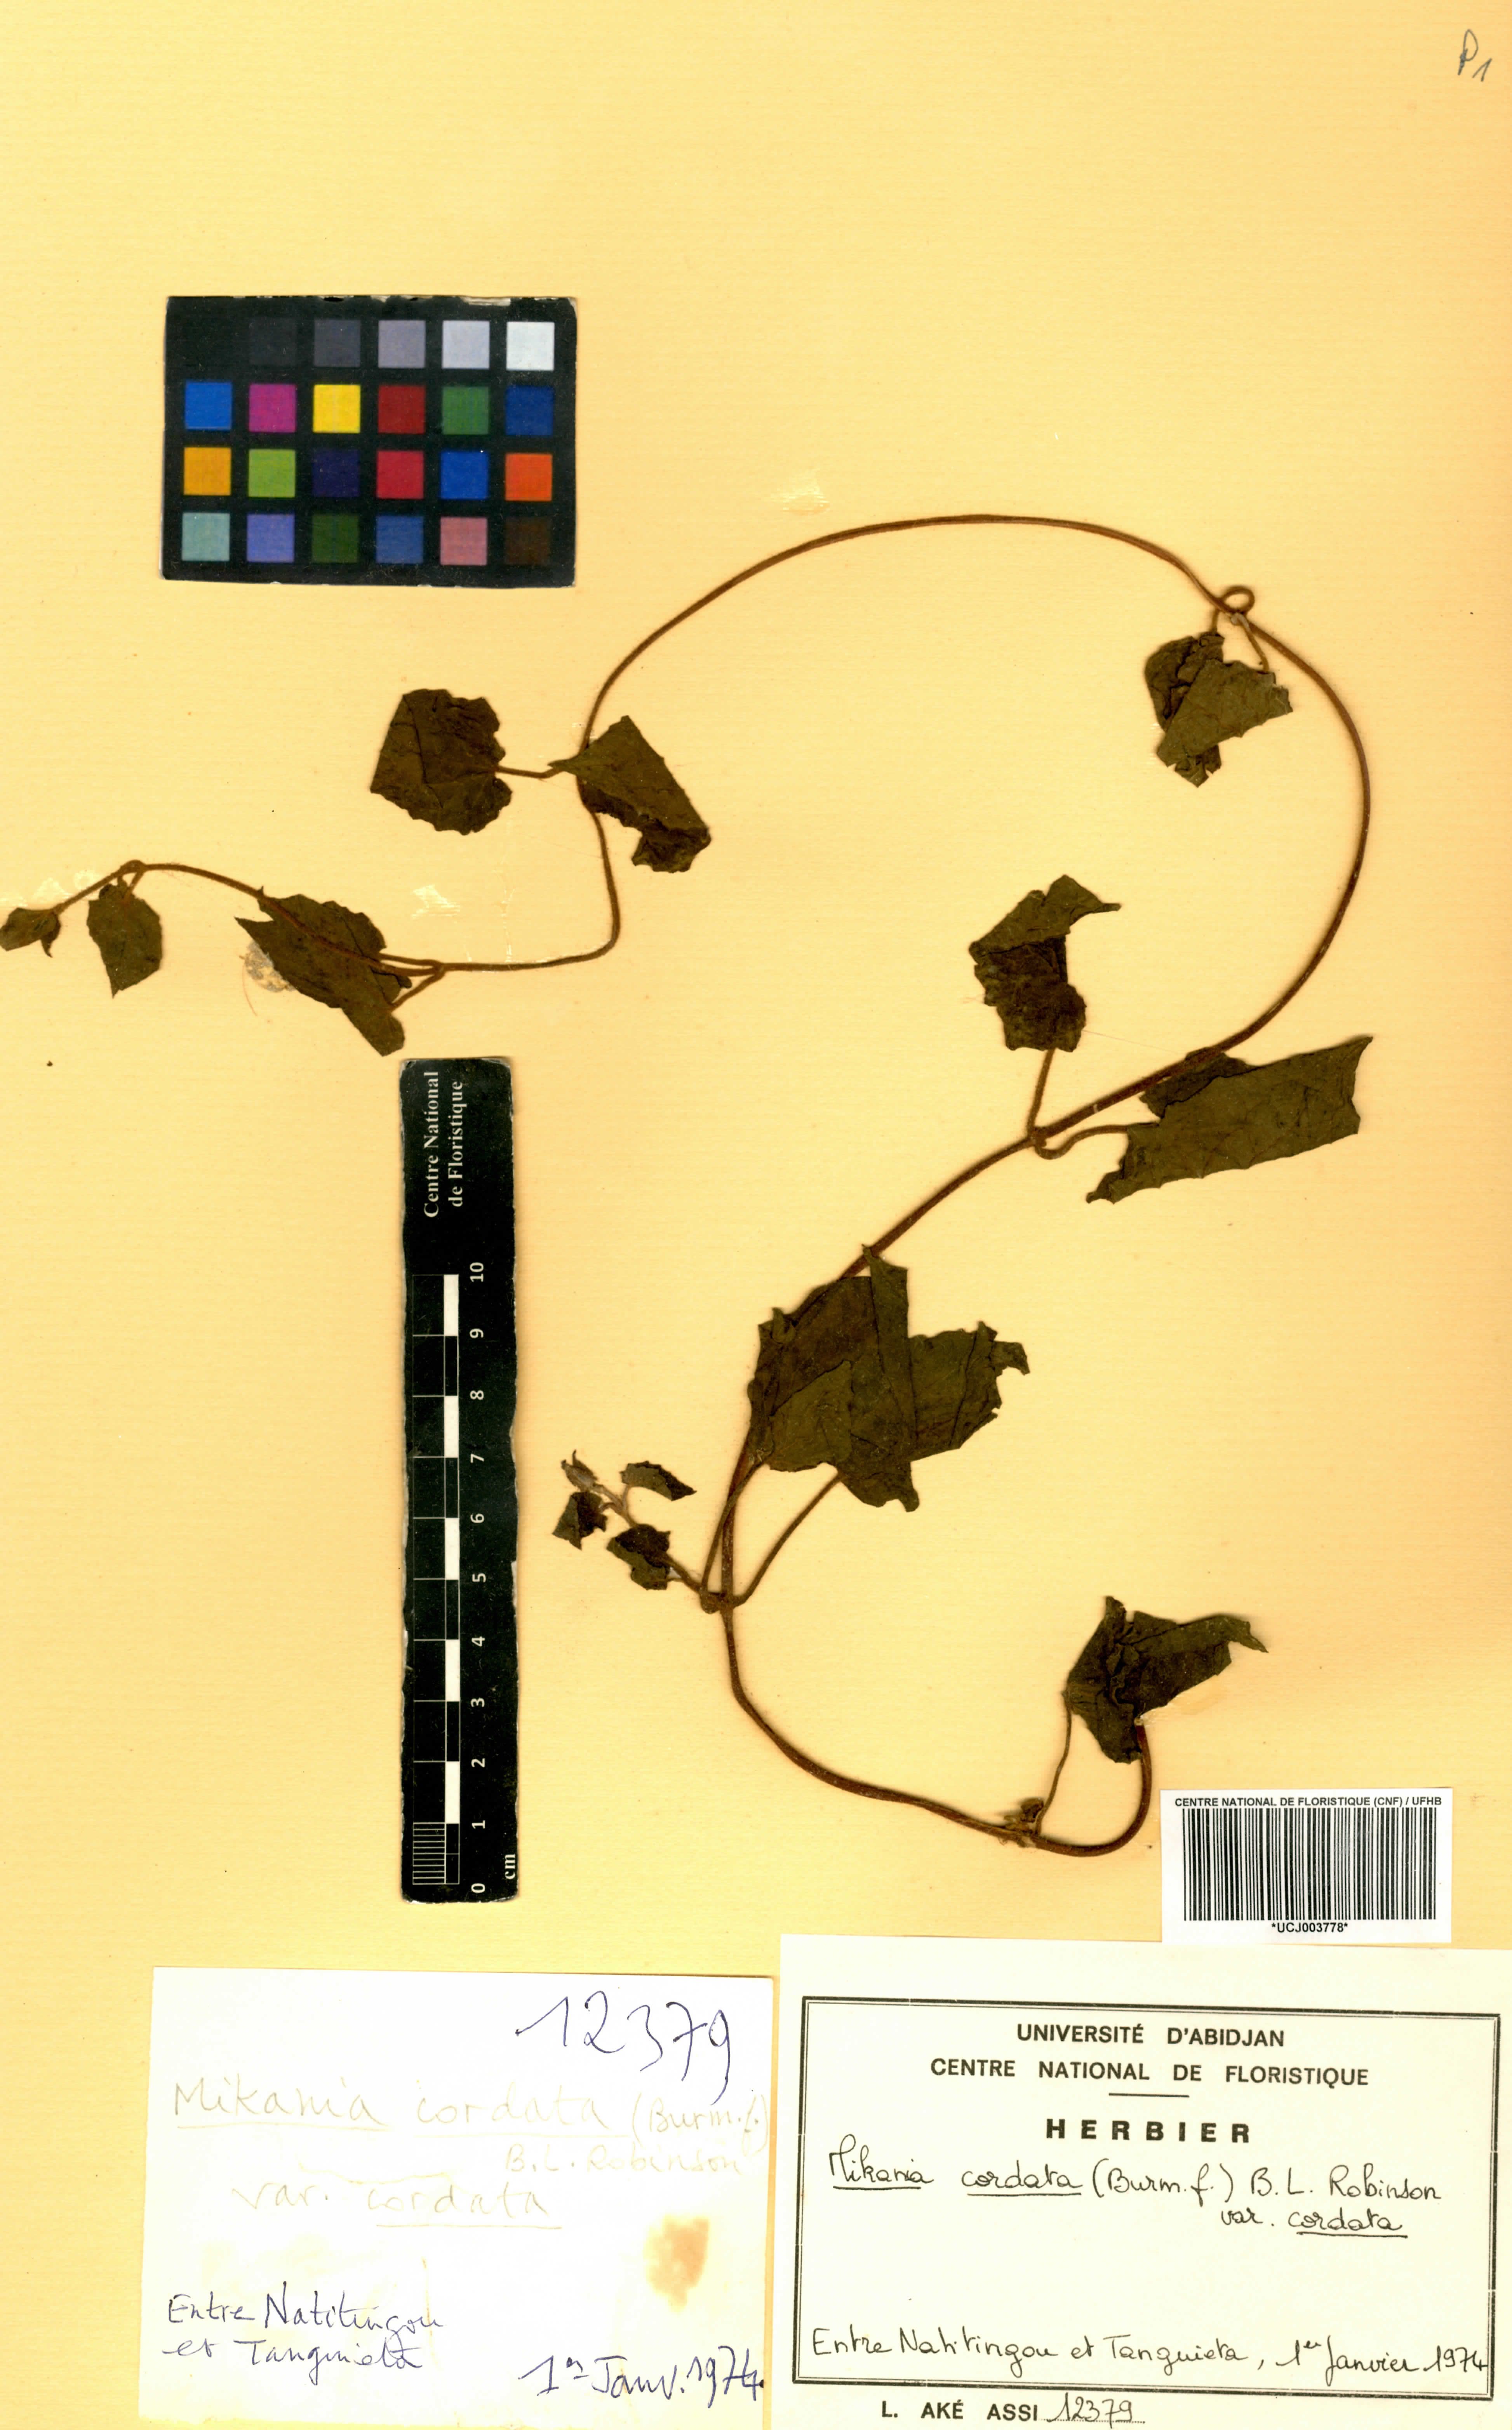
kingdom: Plantae
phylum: Tracheophyta
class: Magnoliopsida
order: Asterales
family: Asteraceae
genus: Mikania
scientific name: Mikania cordata
